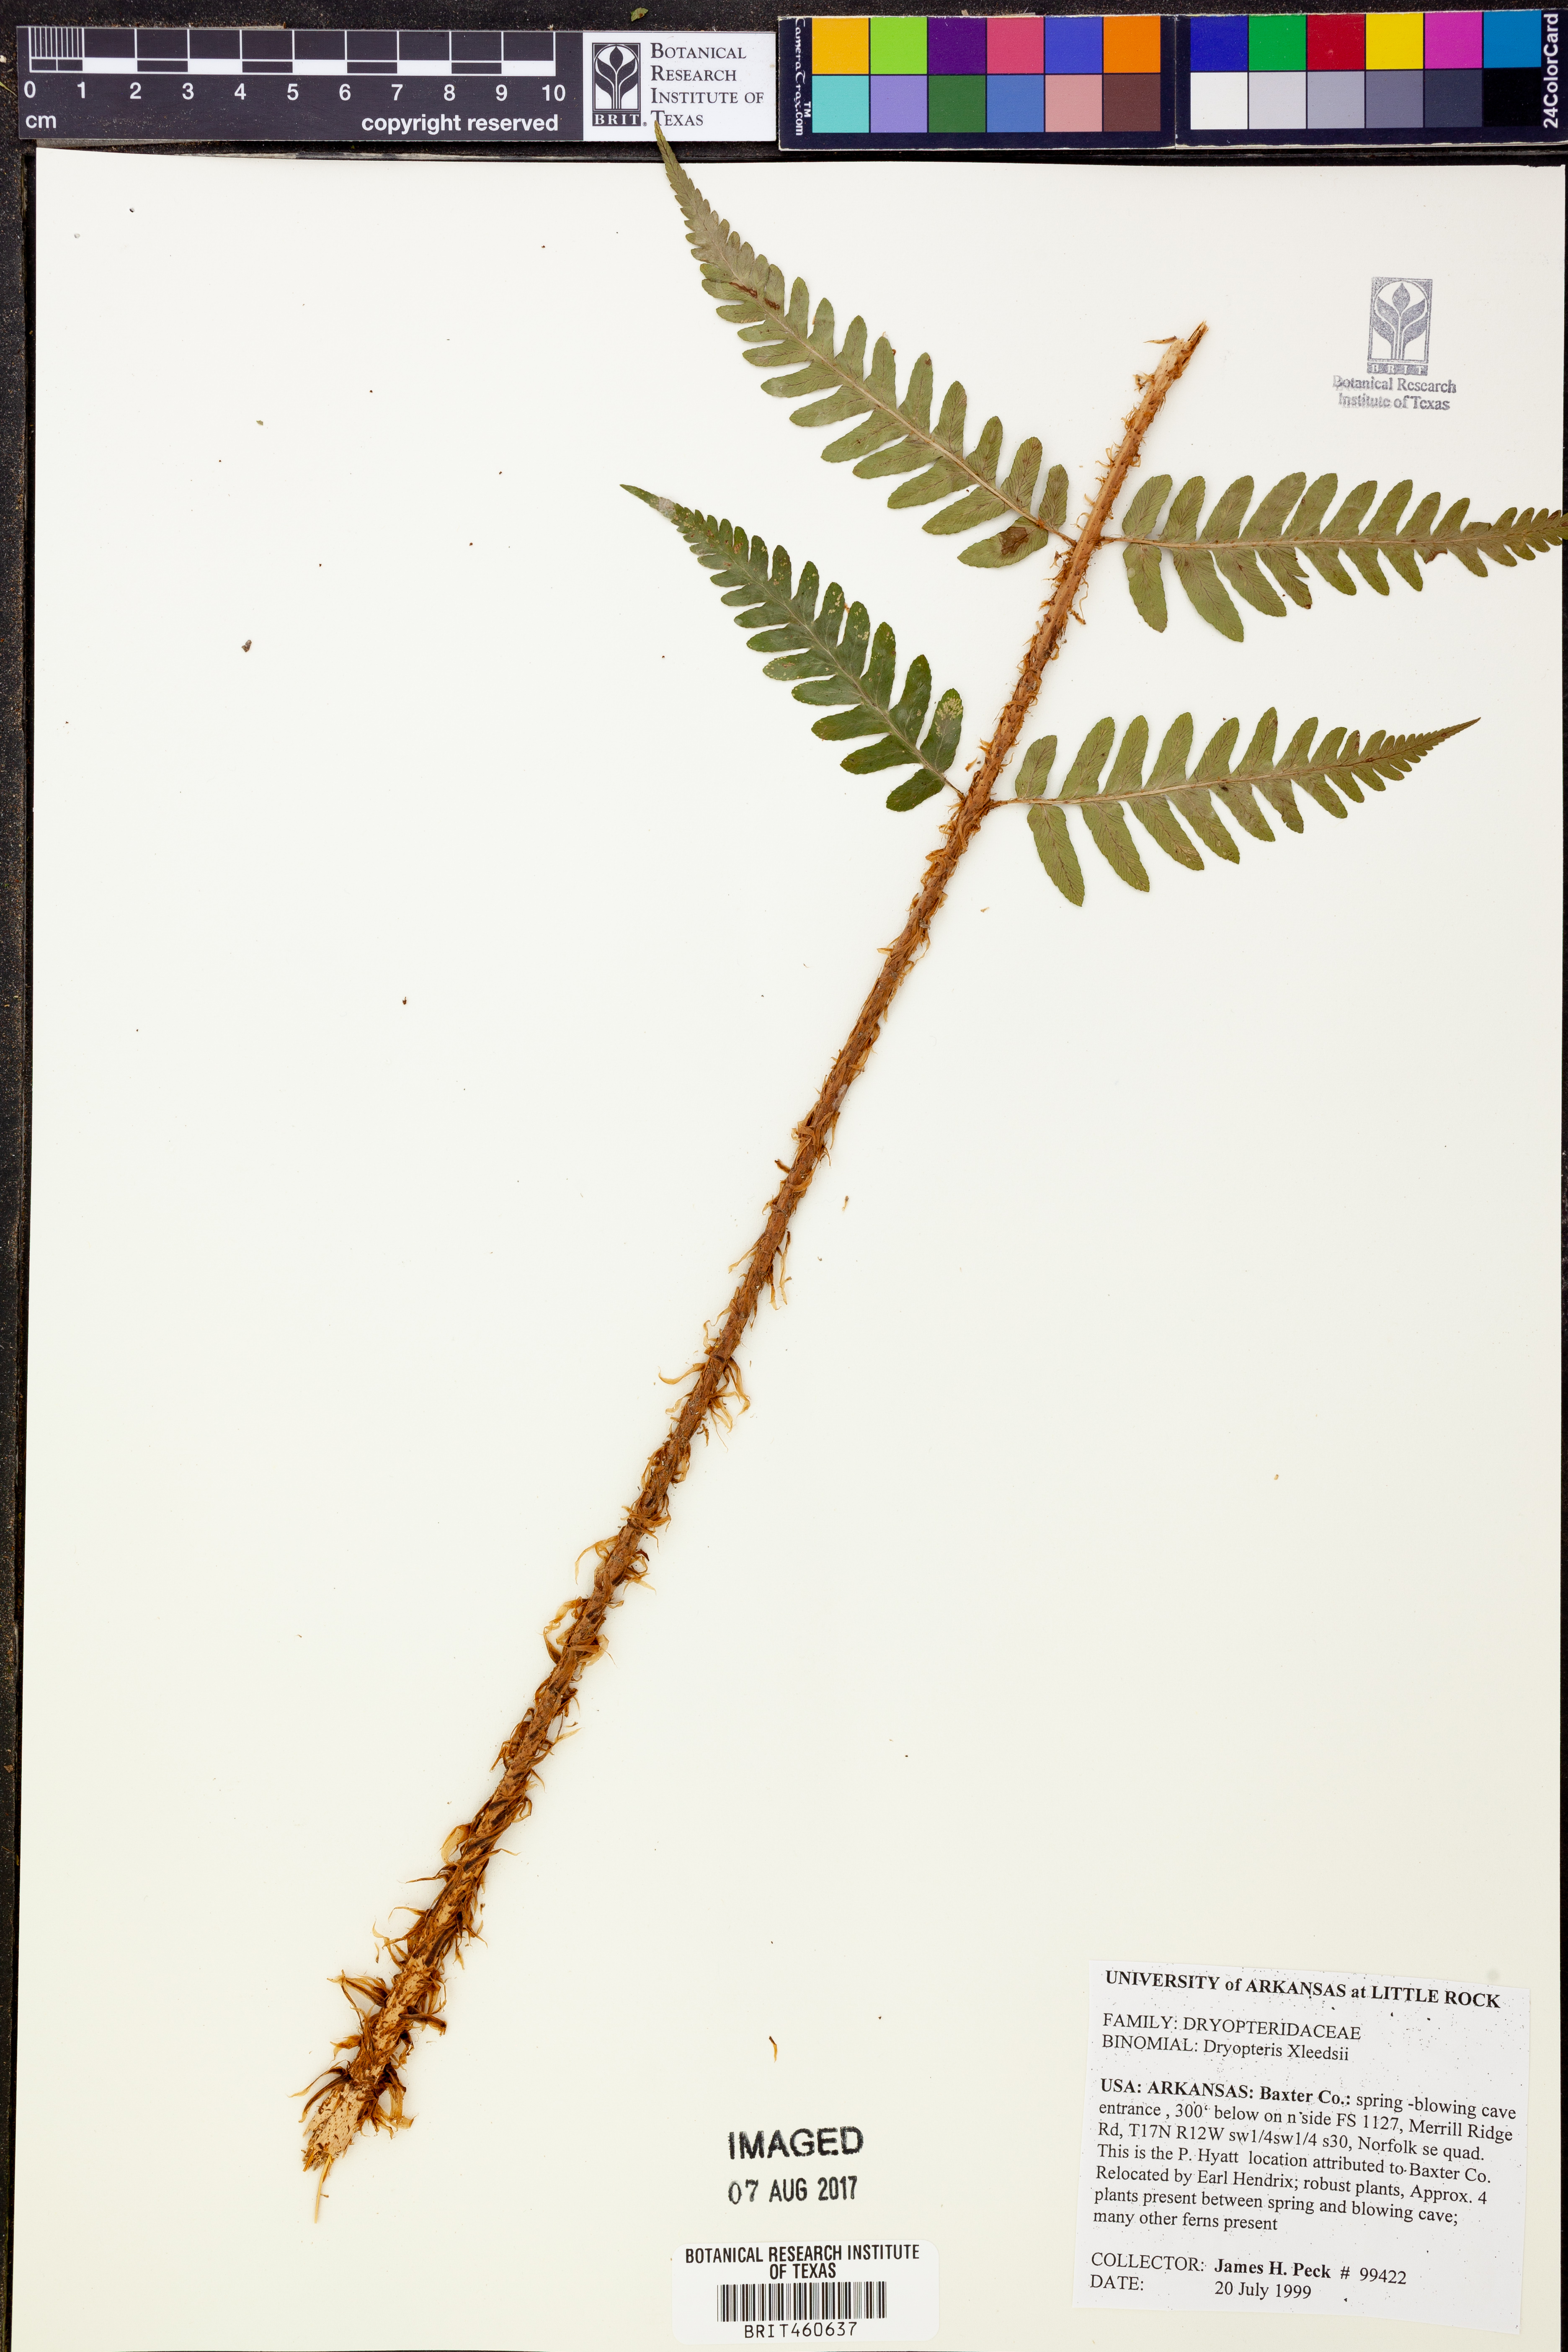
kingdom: Plantae
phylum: Tracheophyta
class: Polypodiopsida
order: Polypodiales
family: Dryopteridaceae
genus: Dryopteris
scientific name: Dryopteris
